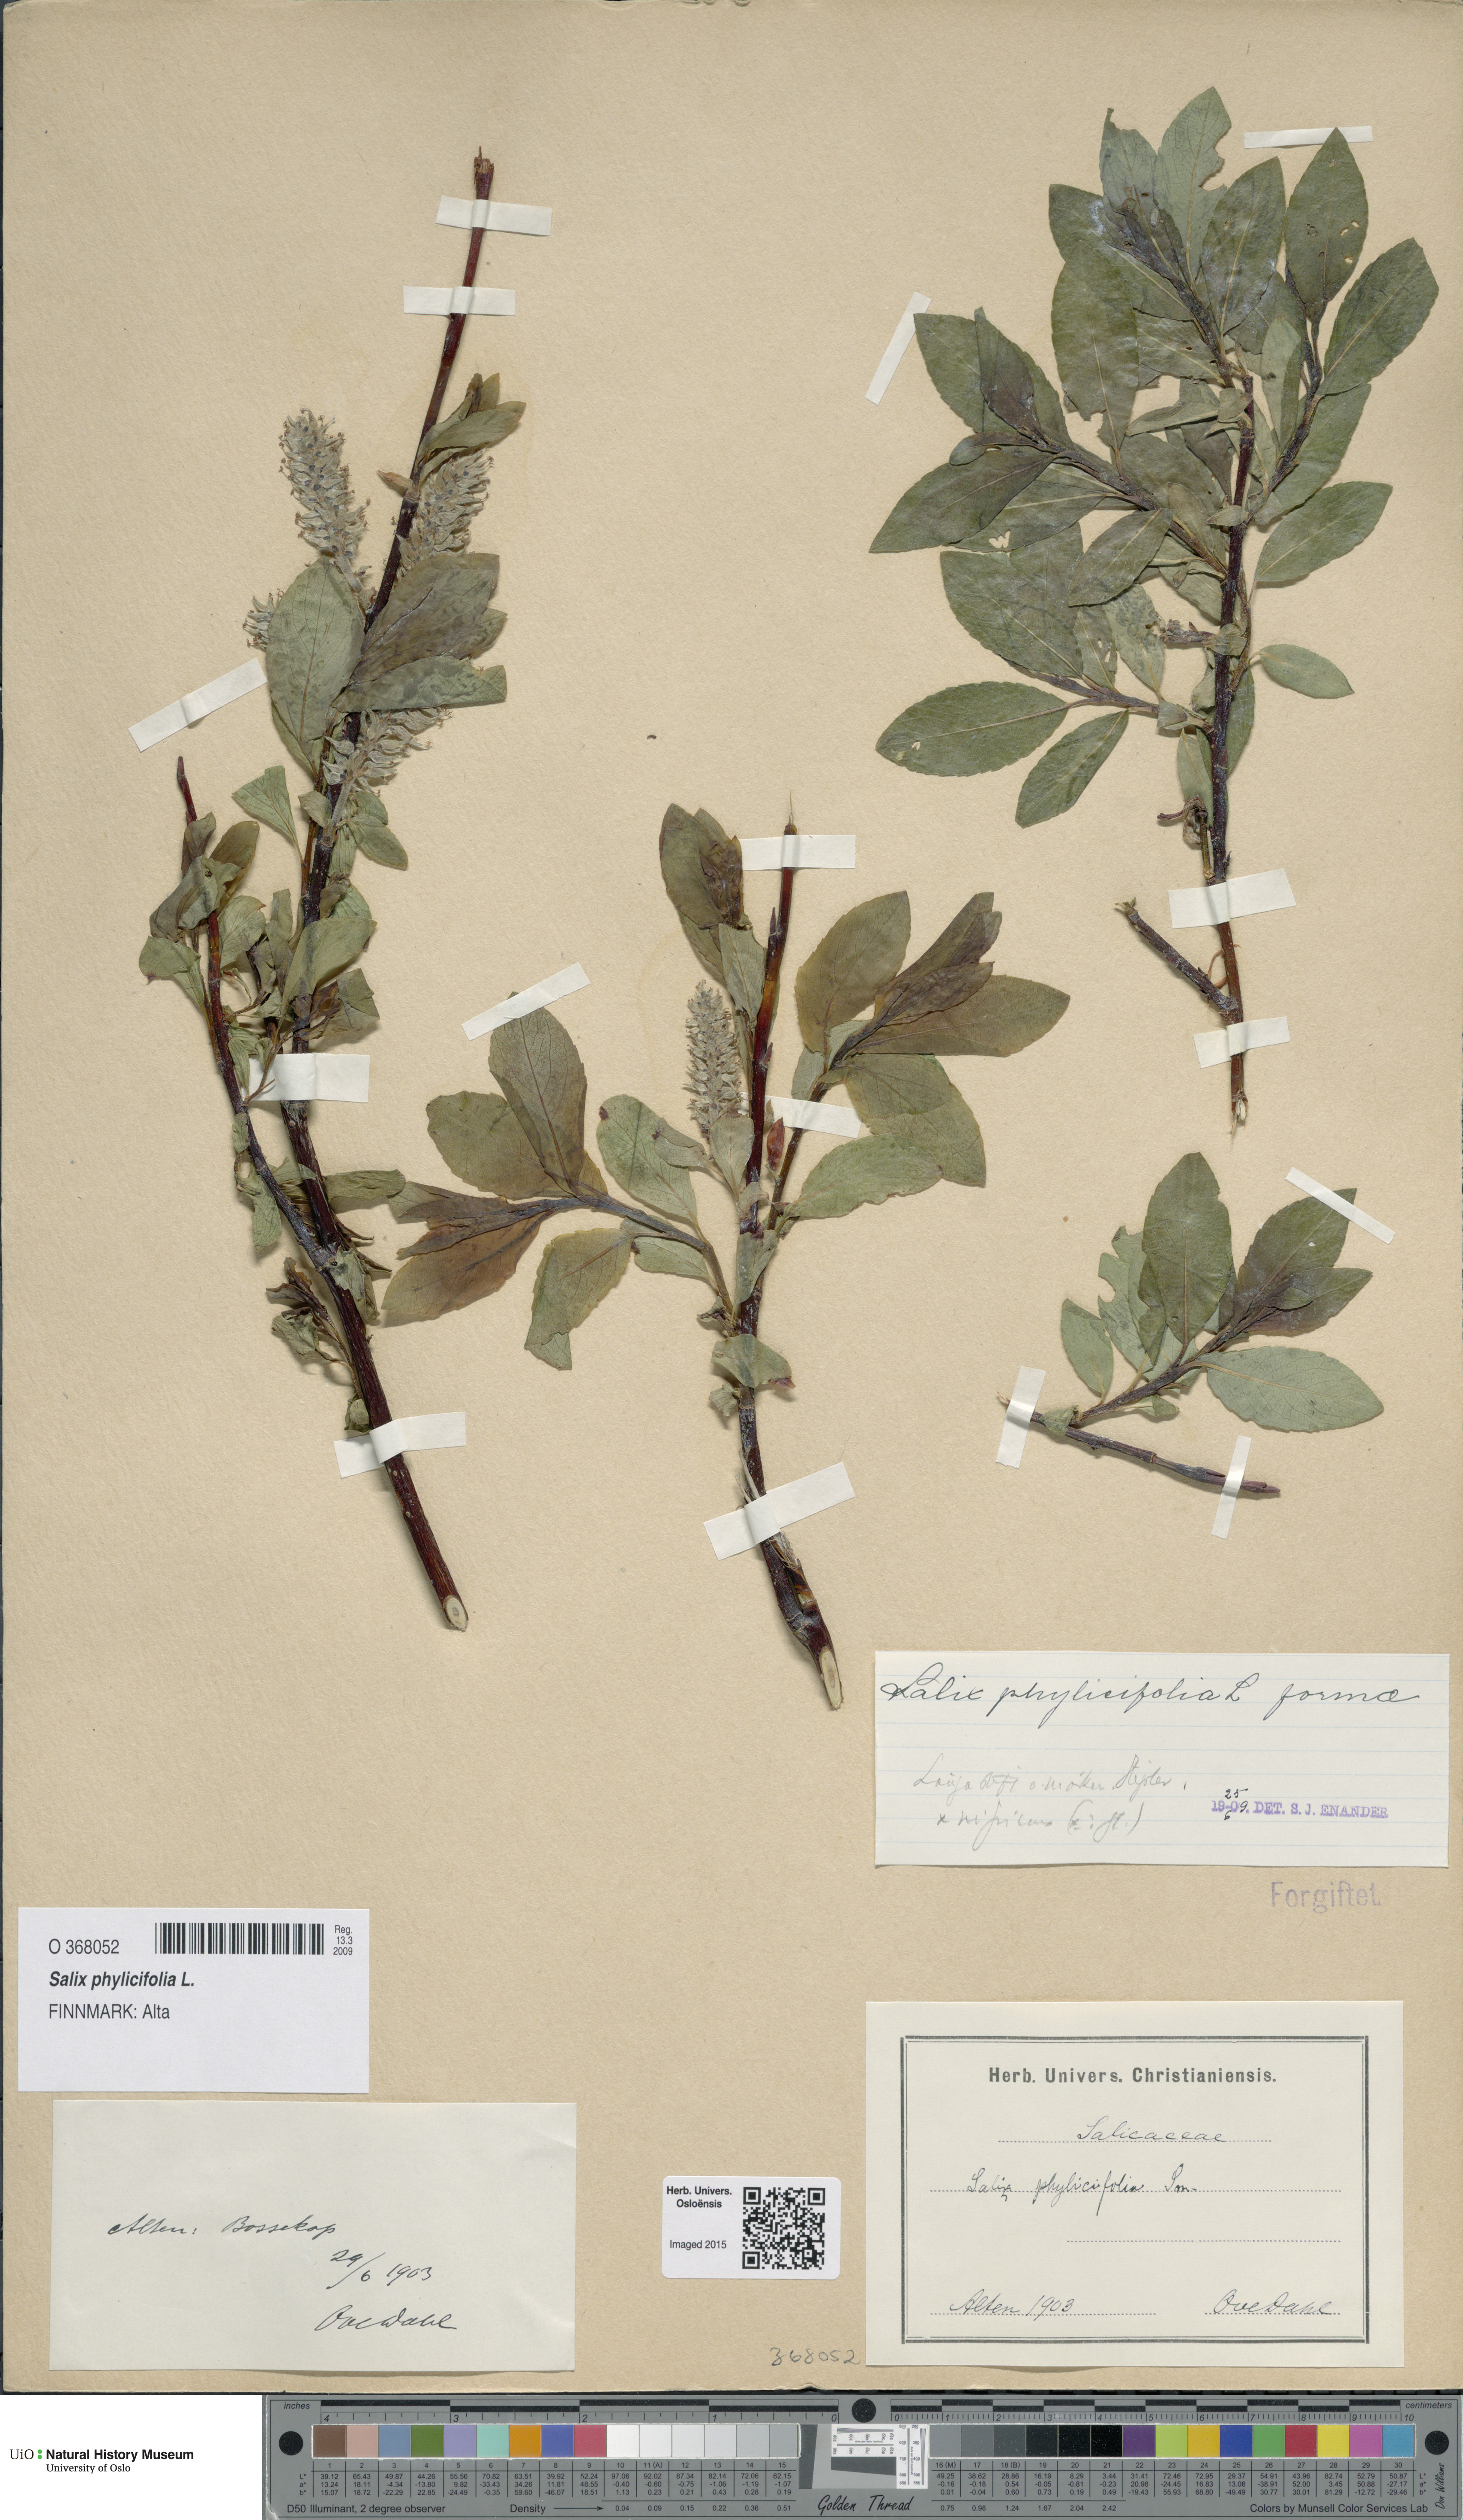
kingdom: Plantae
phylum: Tracheophyta
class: Magnoliopsida
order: Malpighiales
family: Salicaceae
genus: Salix
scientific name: Salix phylicifolia
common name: Tea-leaved willow
